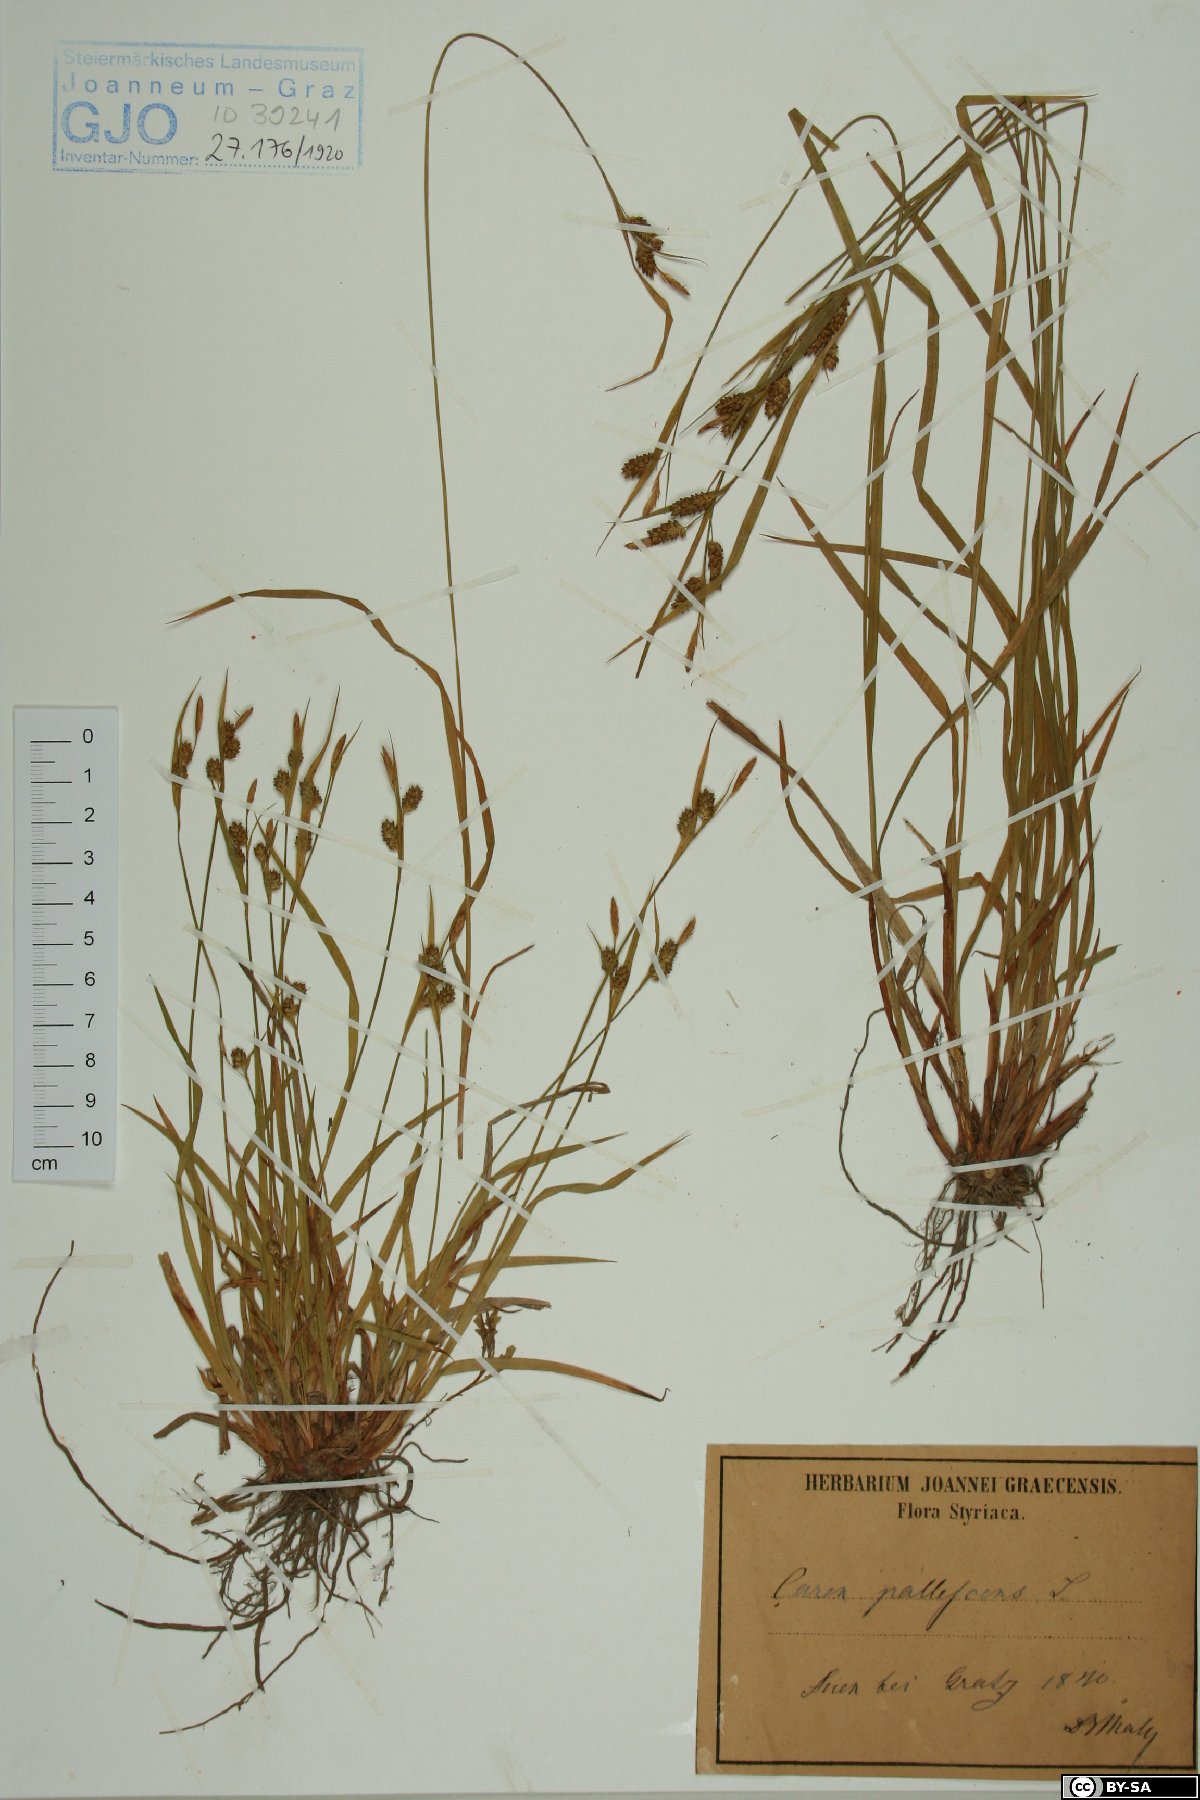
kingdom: Plantae
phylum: Tracheophyta
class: Liliopsida
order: Poales
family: Cyperaceae
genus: Carex
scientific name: Carex pallescens
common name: Pale sedge
